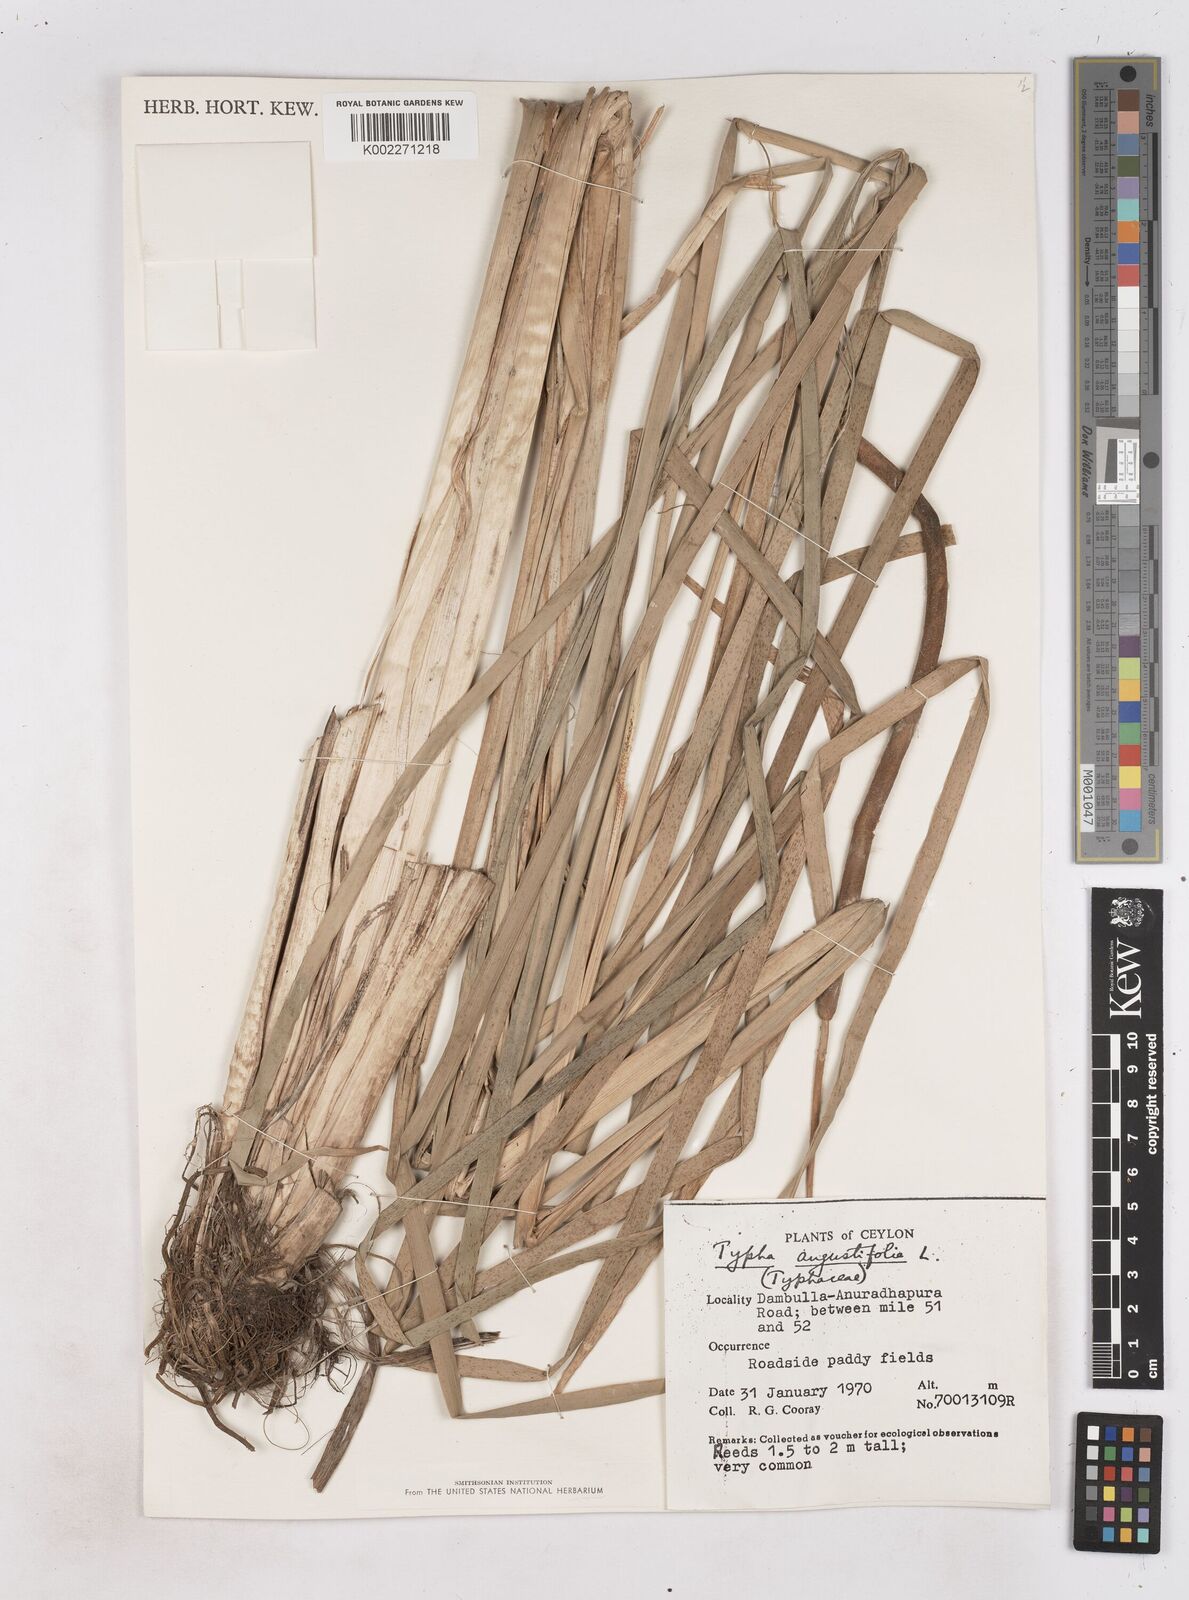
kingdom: Plantae
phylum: Tracheophyta
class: Liliopsida
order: Poales
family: Typhaceae
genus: Typha
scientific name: Typha domingensis
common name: Southern cattail
